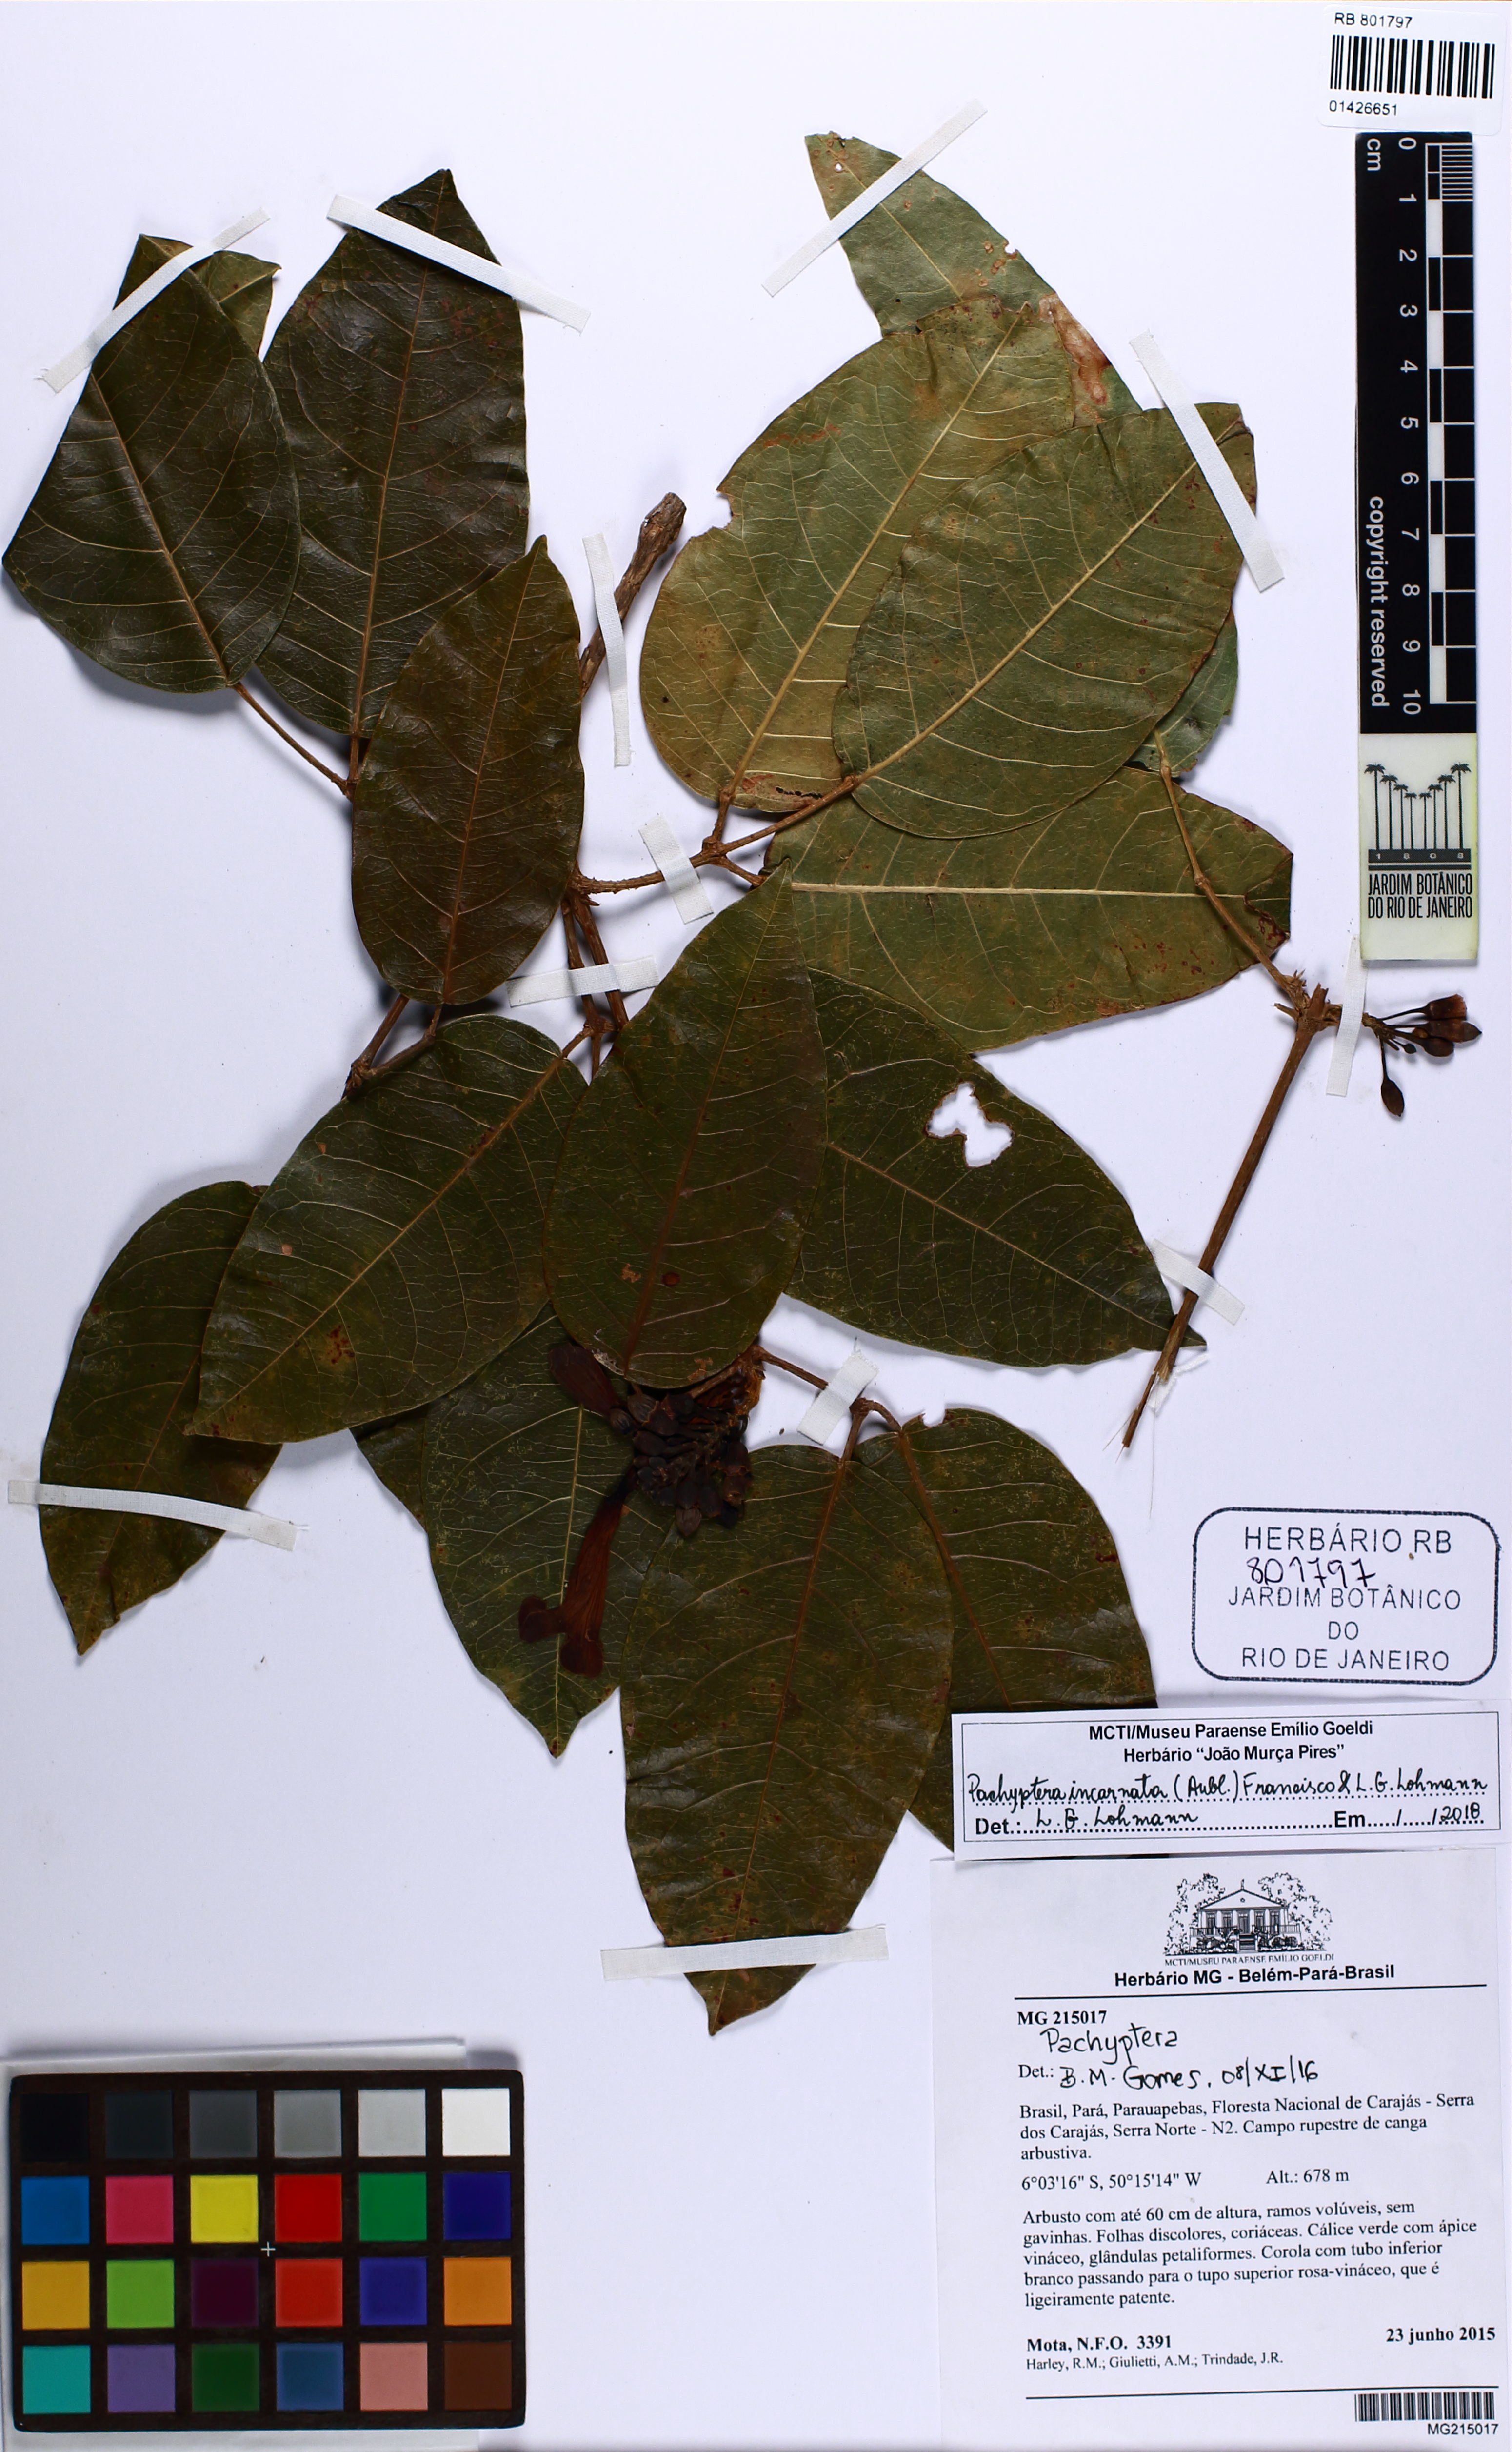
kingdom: Plantae
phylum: Tracheophyta
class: Magnoliopsida
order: Lamiales
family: Bignoniaceae
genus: Pachyptera
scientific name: Pachyptera incarnata
